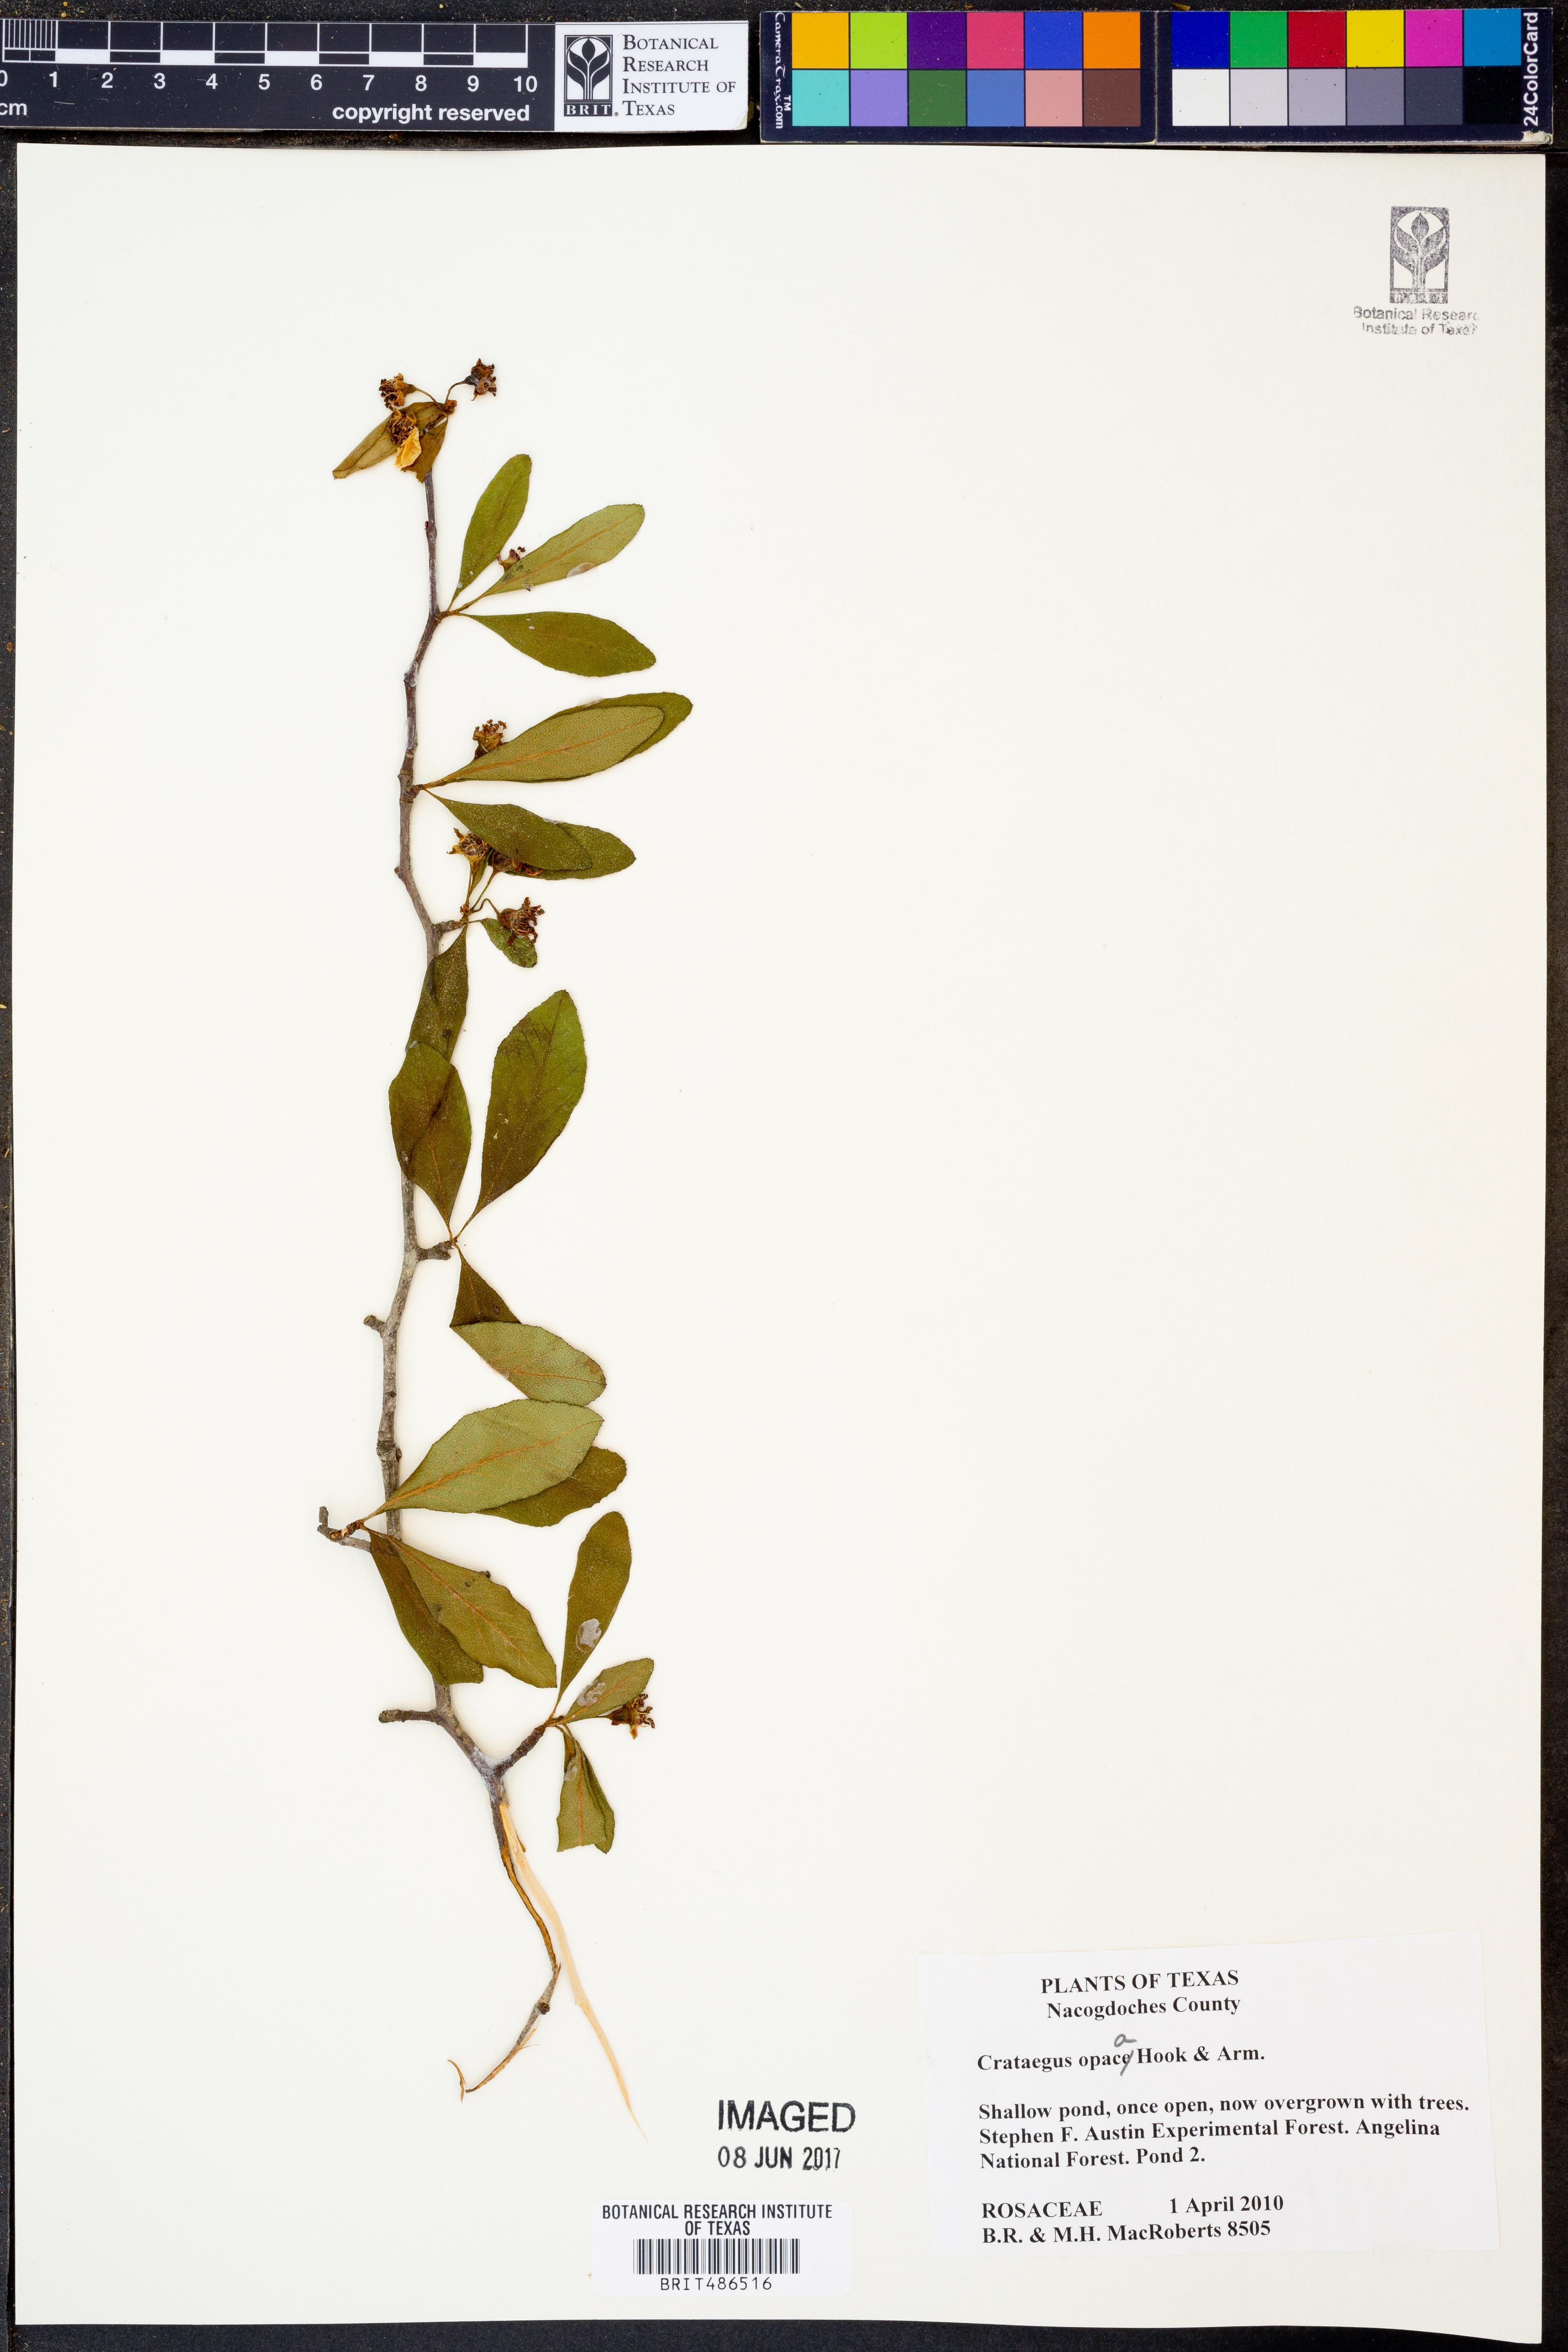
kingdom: Plantae
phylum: Tracheophyta
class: Magnoliopsida
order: Rosales
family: Rosaceae
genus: Crataegus
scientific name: Crataegus opaca
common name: Apple haw
